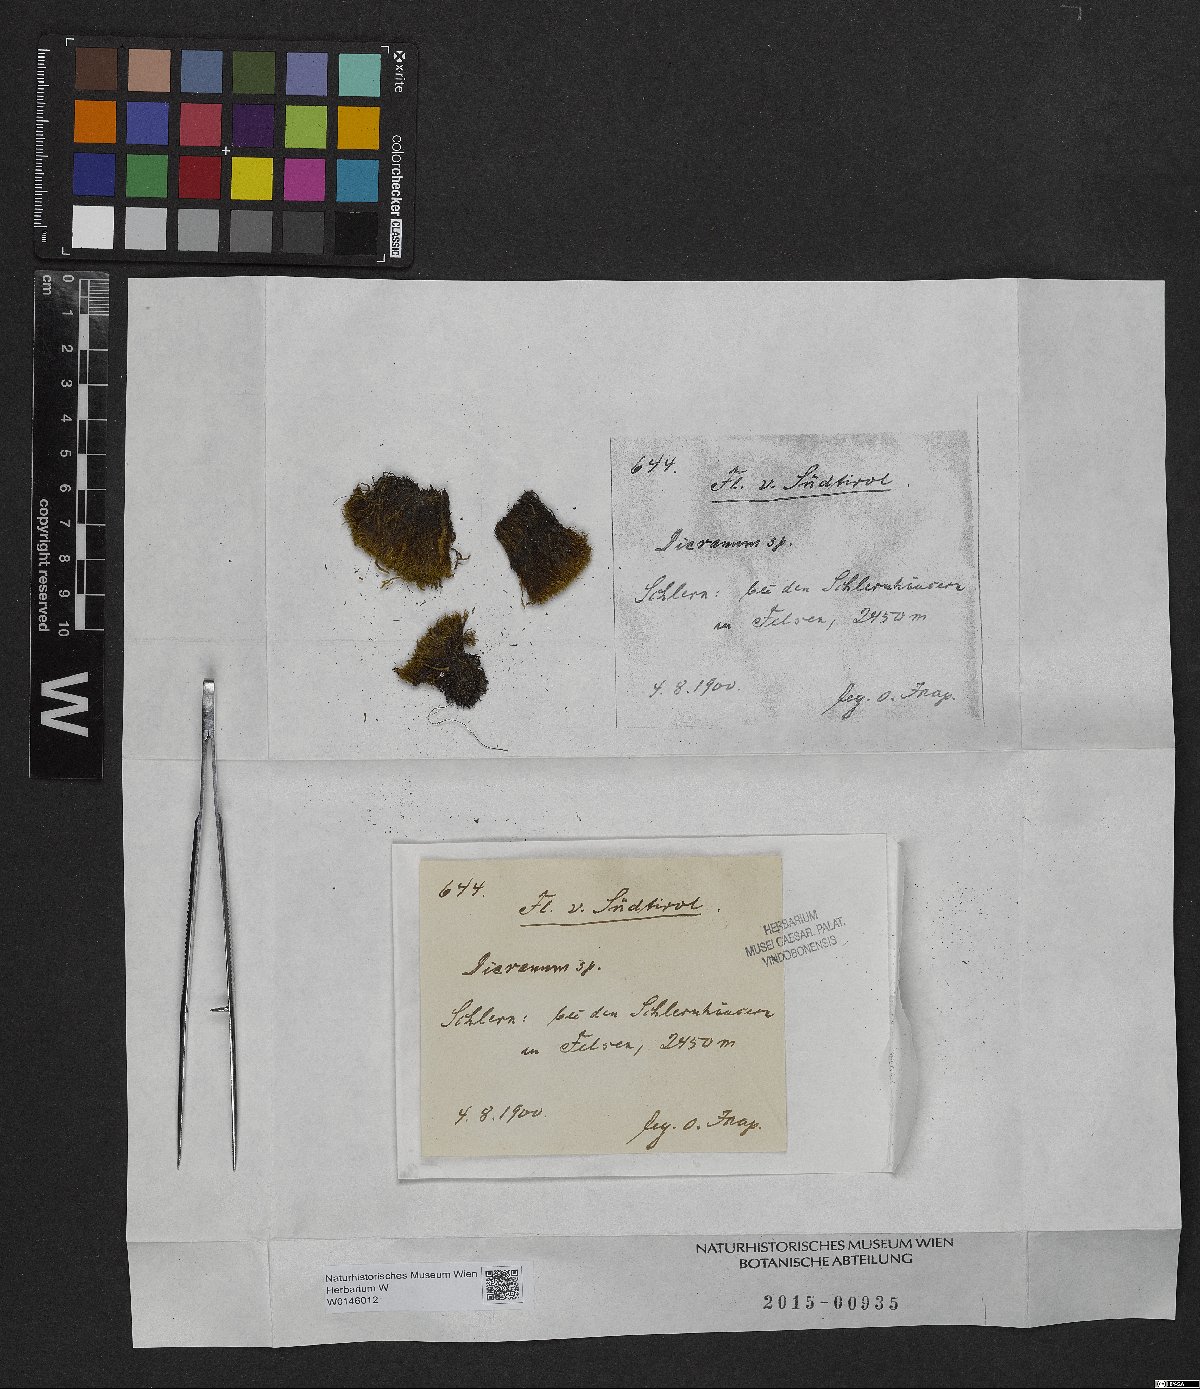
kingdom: Plantae
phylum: Bryophyta
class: Bryopsida
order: Dicranales
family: Dicranaceae
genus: Dicranum
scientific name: Dicranum
